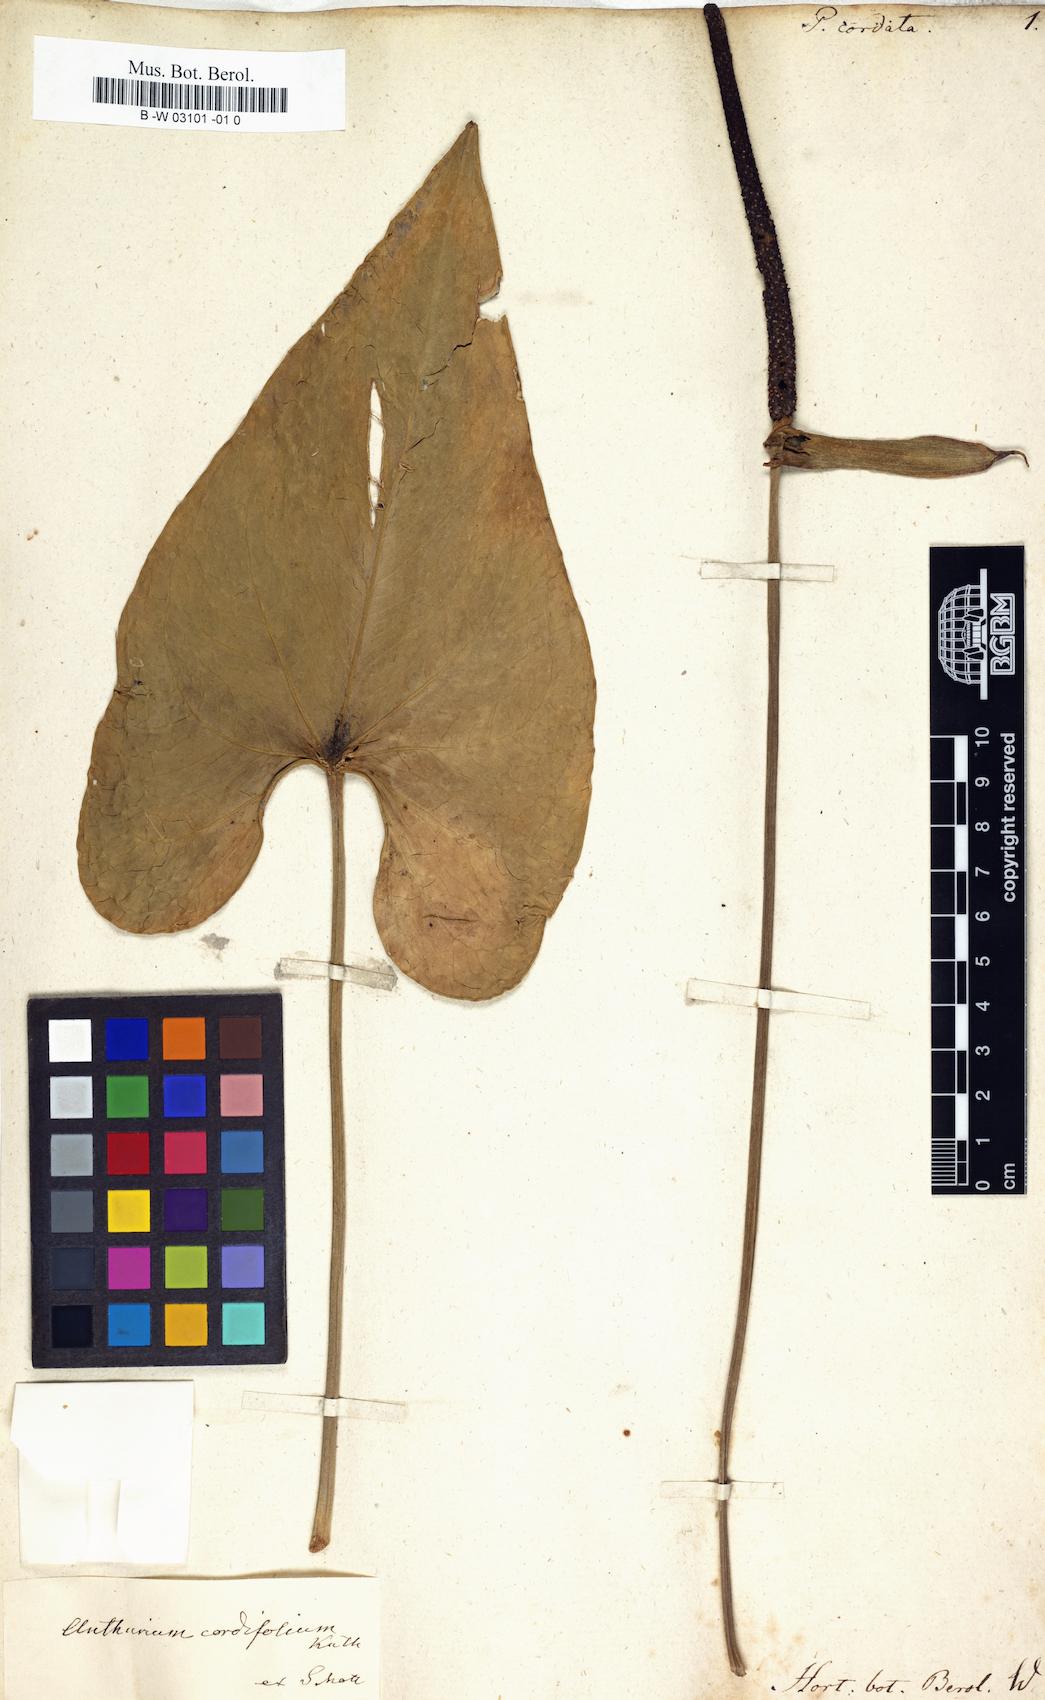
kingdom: Plantae
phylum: Tracheophyta
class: Liliopsida
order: Alismatales
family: Araceae
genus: Anthurium
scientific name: Anthurium cordatum
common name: Monkey tail
